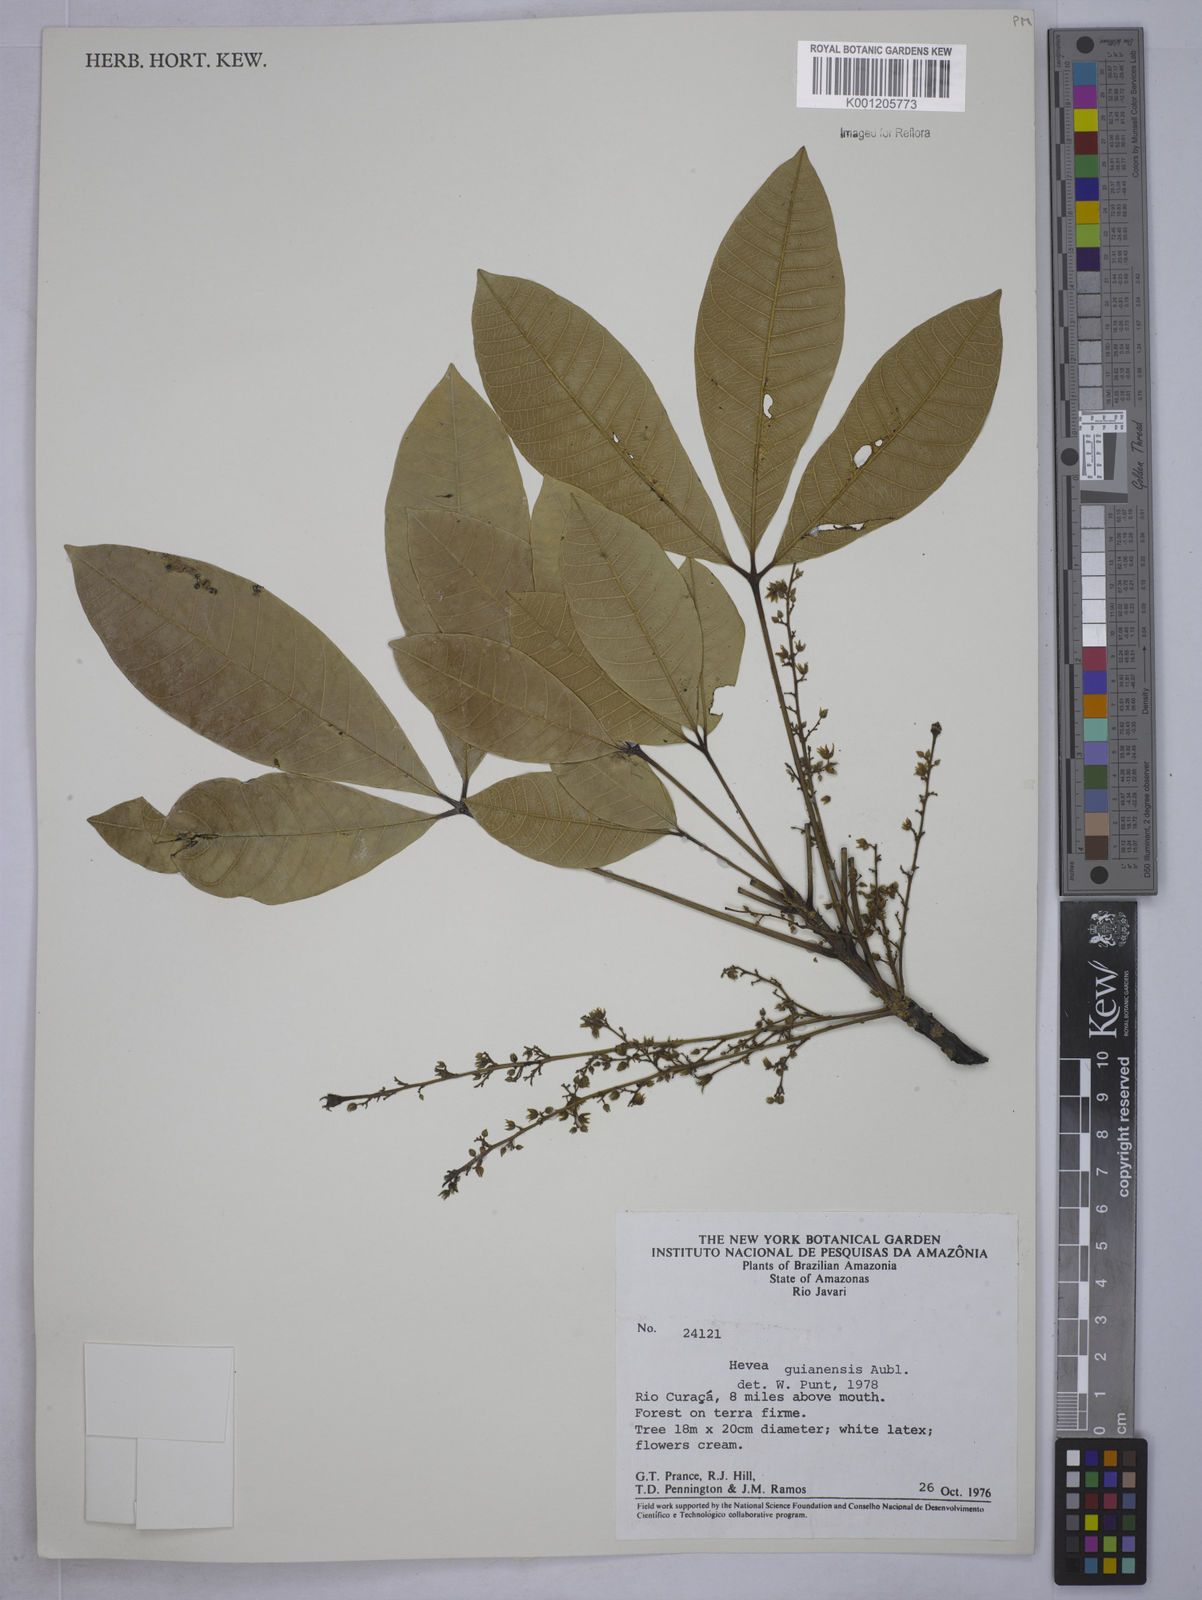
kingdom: Plantae
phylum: Tracheophyta
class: Magnoliopsida
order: Malpighiales
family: Euphorbiaceae
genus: Hevea
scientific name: Hevea guianensis
